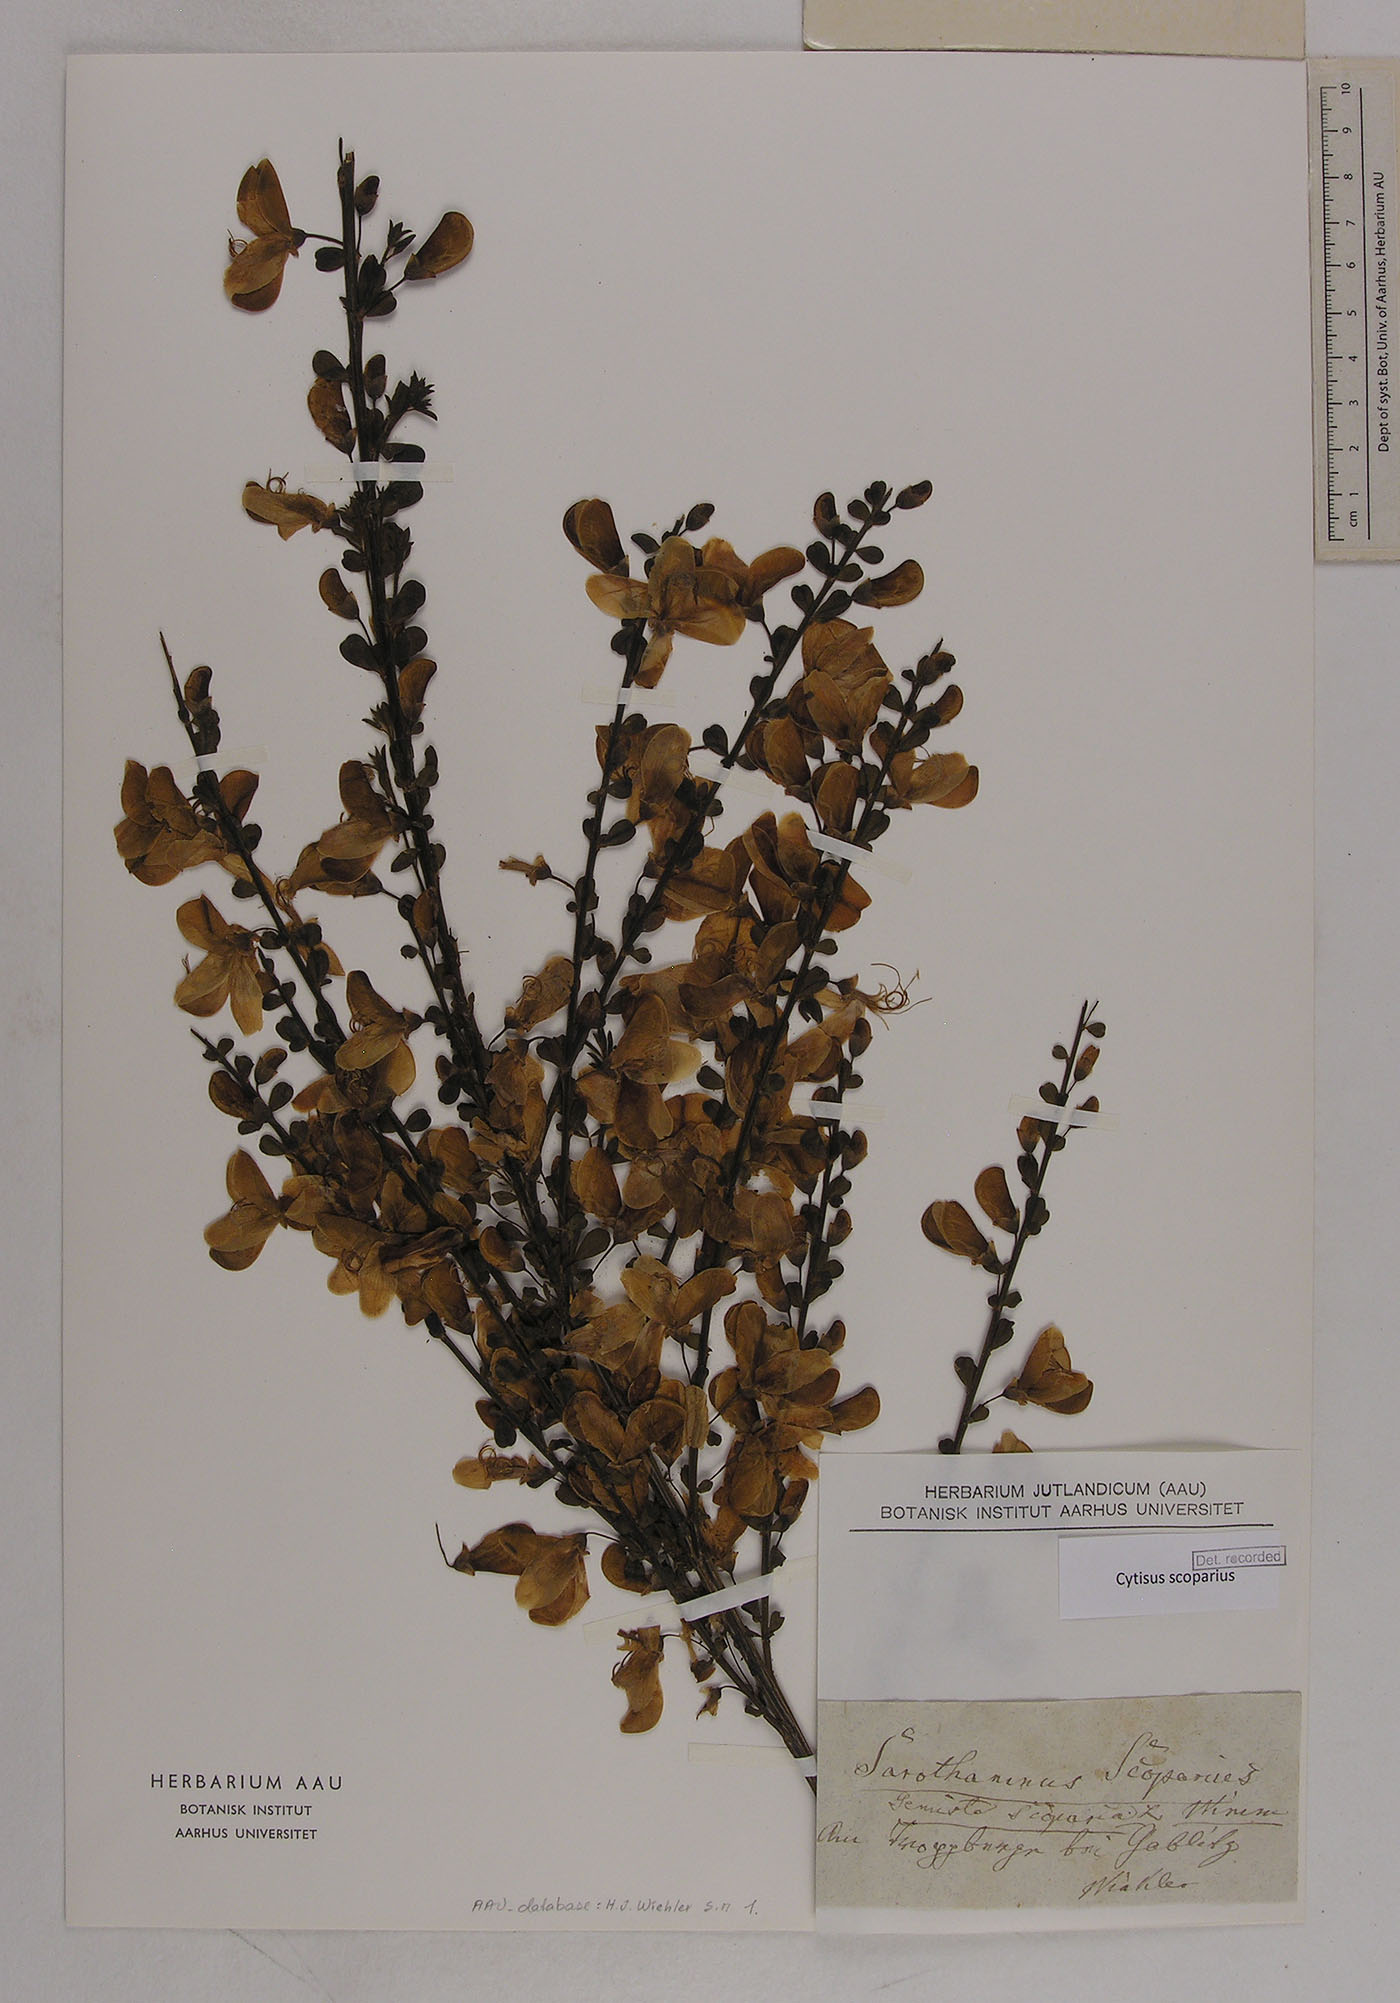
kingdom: Plantae
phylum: Tracheophyta
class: Magnoliopsida
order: Fabales
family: Fabaceae
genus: Cytisus
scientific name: Cytisus scoparius
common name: Scotch broom
